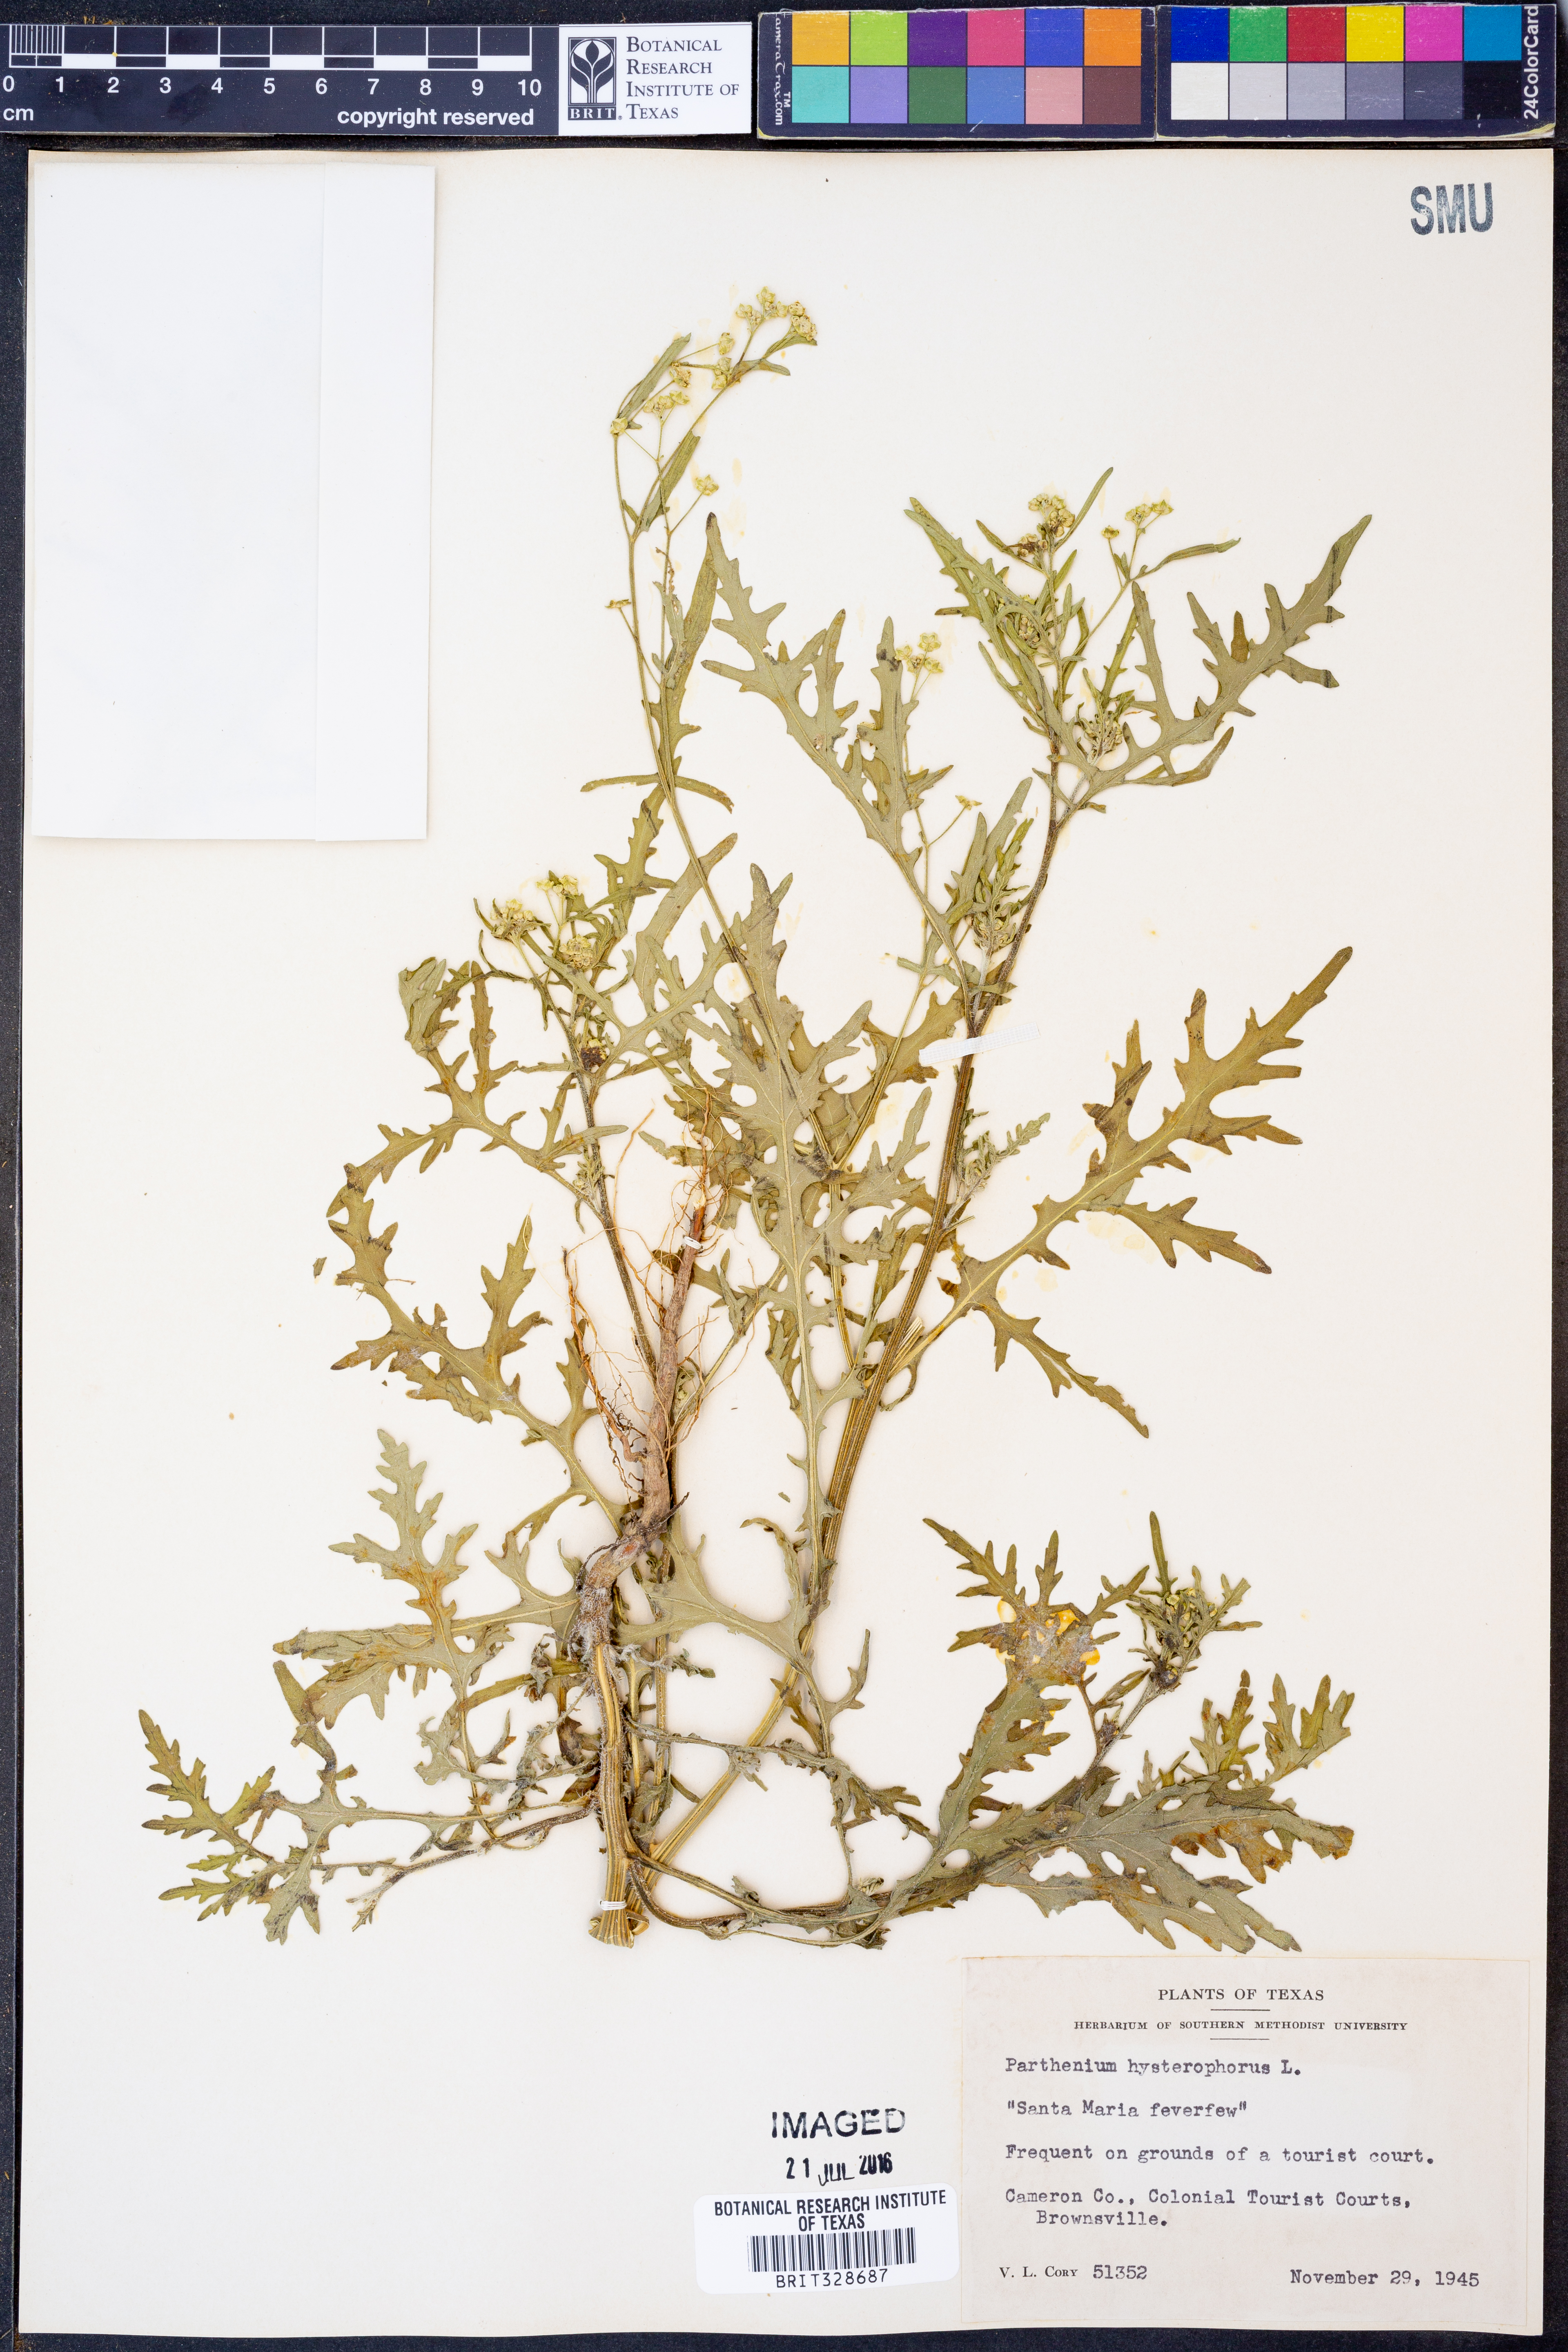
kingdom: Plantae
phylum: Tracheophyta
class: Magnoliopsida
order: Asterales
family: Asteraceae
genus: Parthenium
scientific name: Parthenium hysterophorus
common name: Santa maria feverfew
